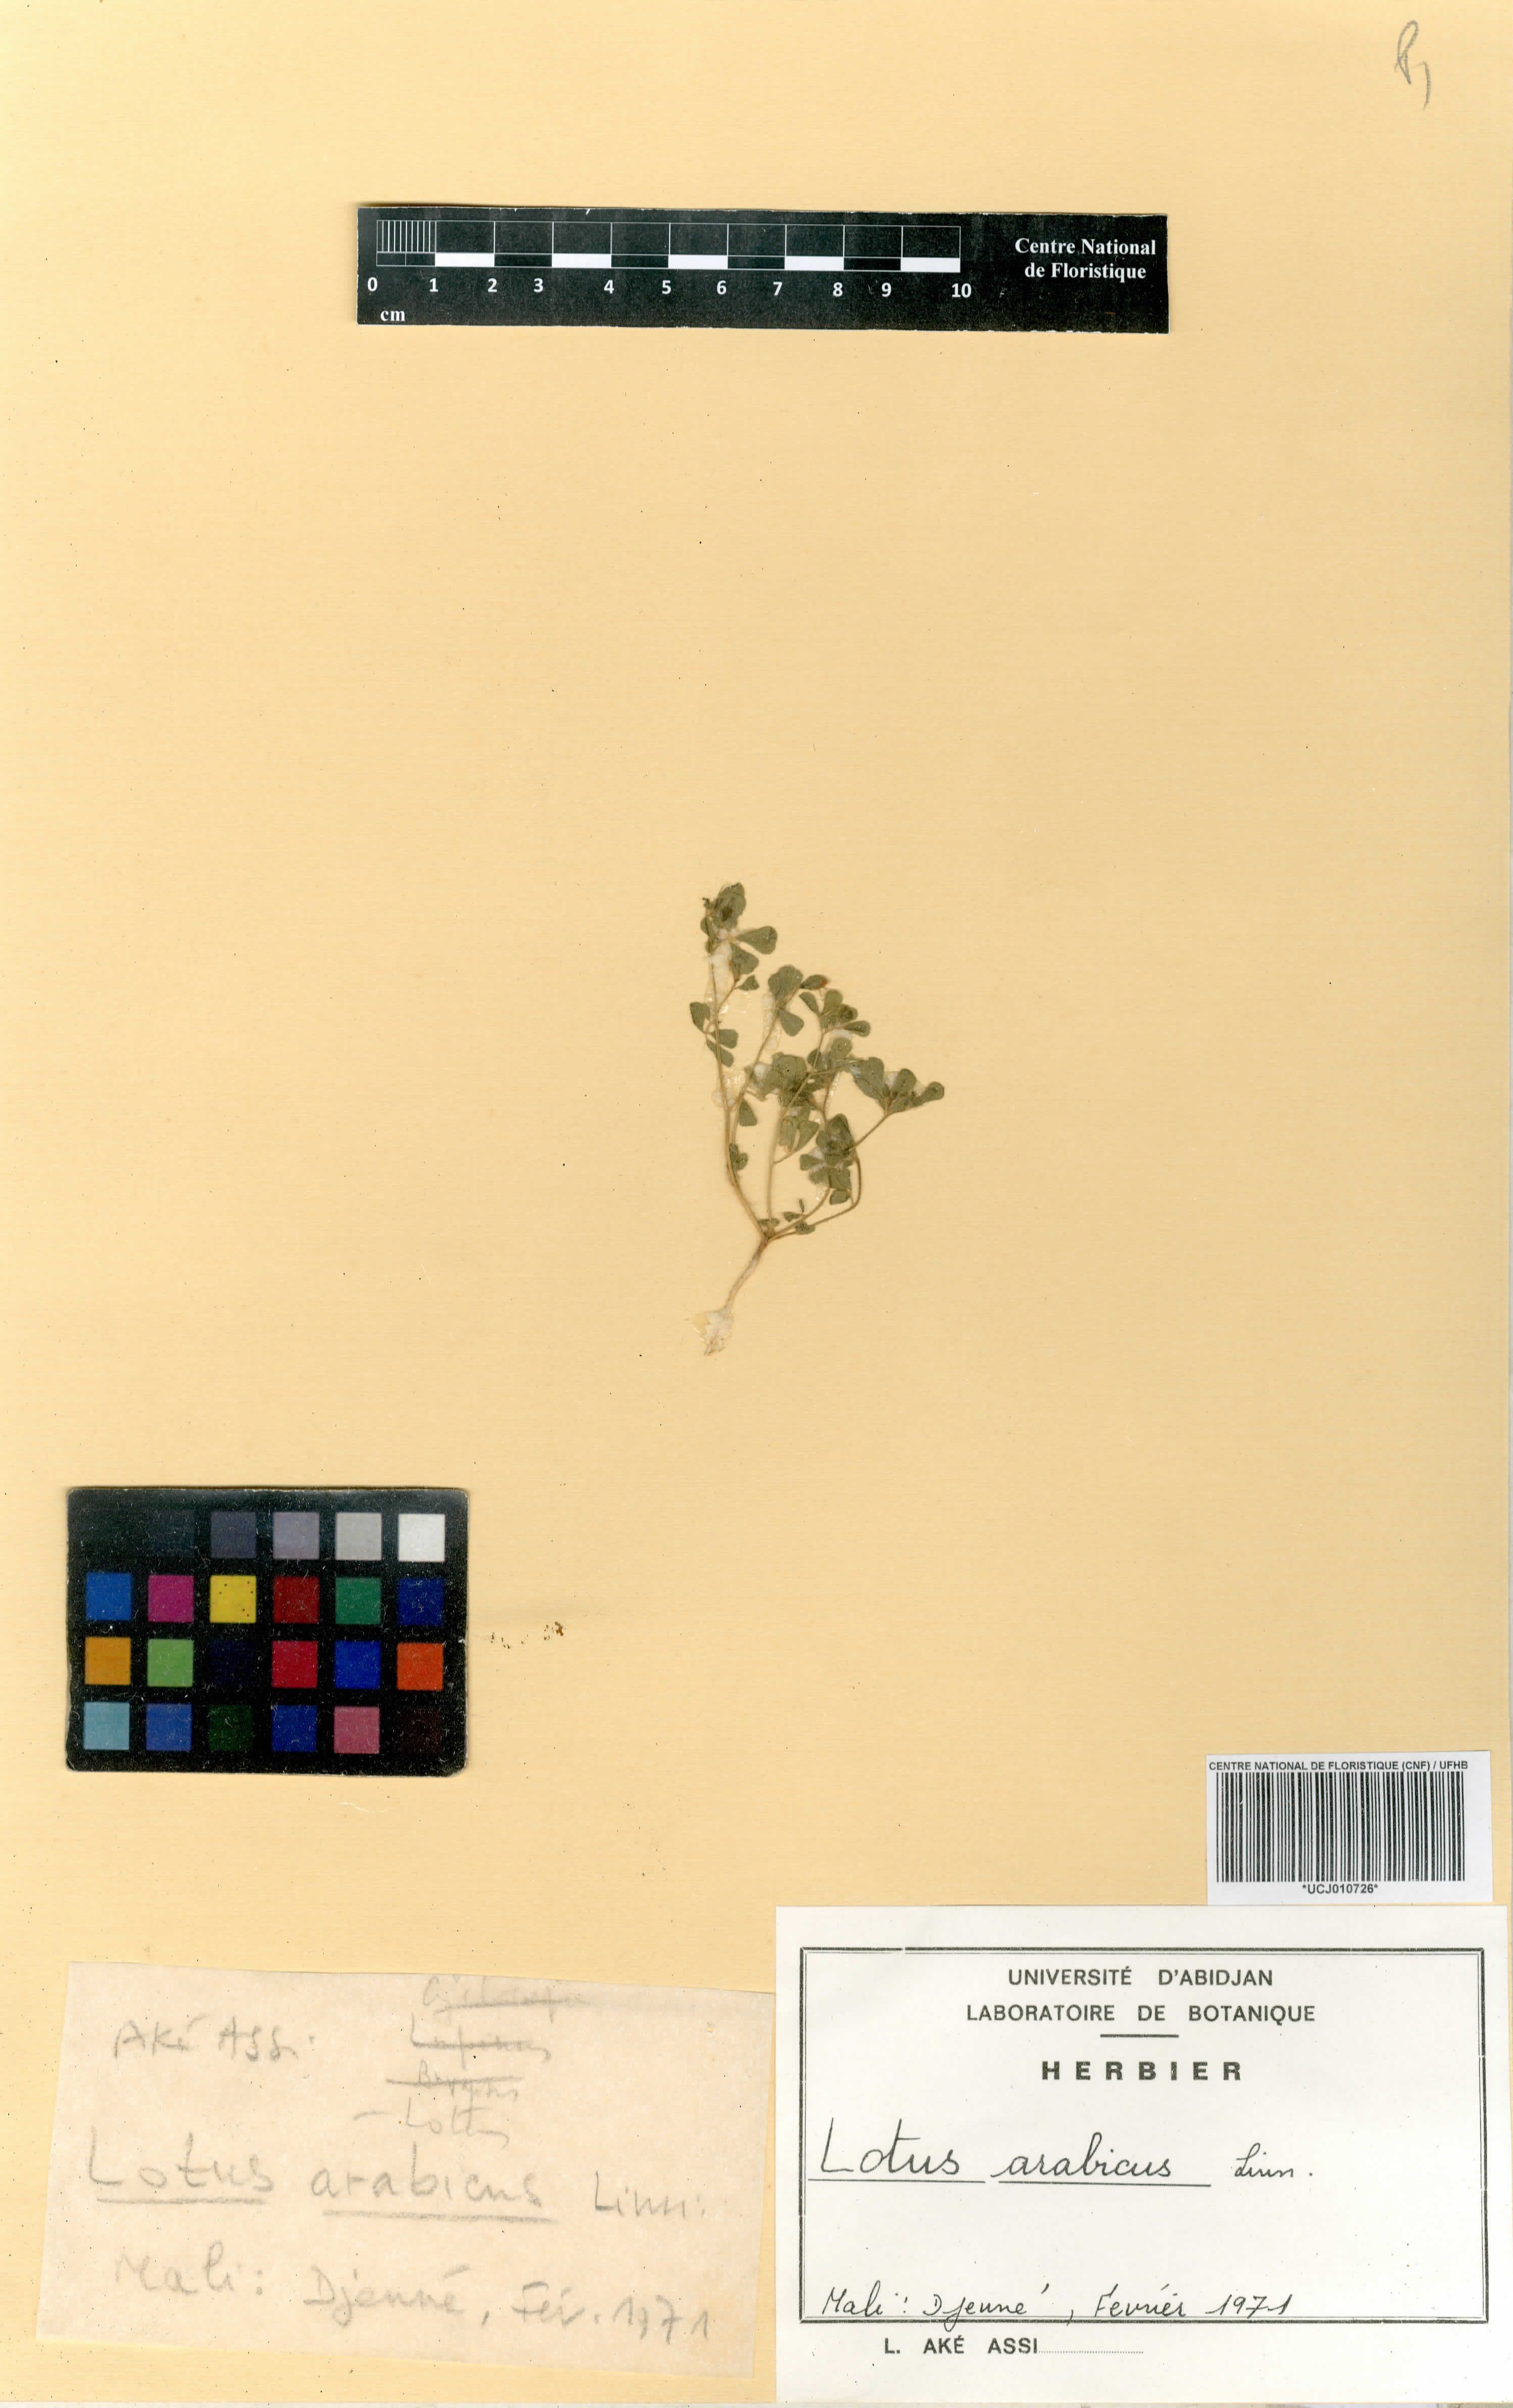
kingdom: Plantae
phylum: Tracheophyta
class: Magnoliopsida
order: Fabales
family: Fabaceae
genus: Lotus
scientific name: Lotus arabicus
